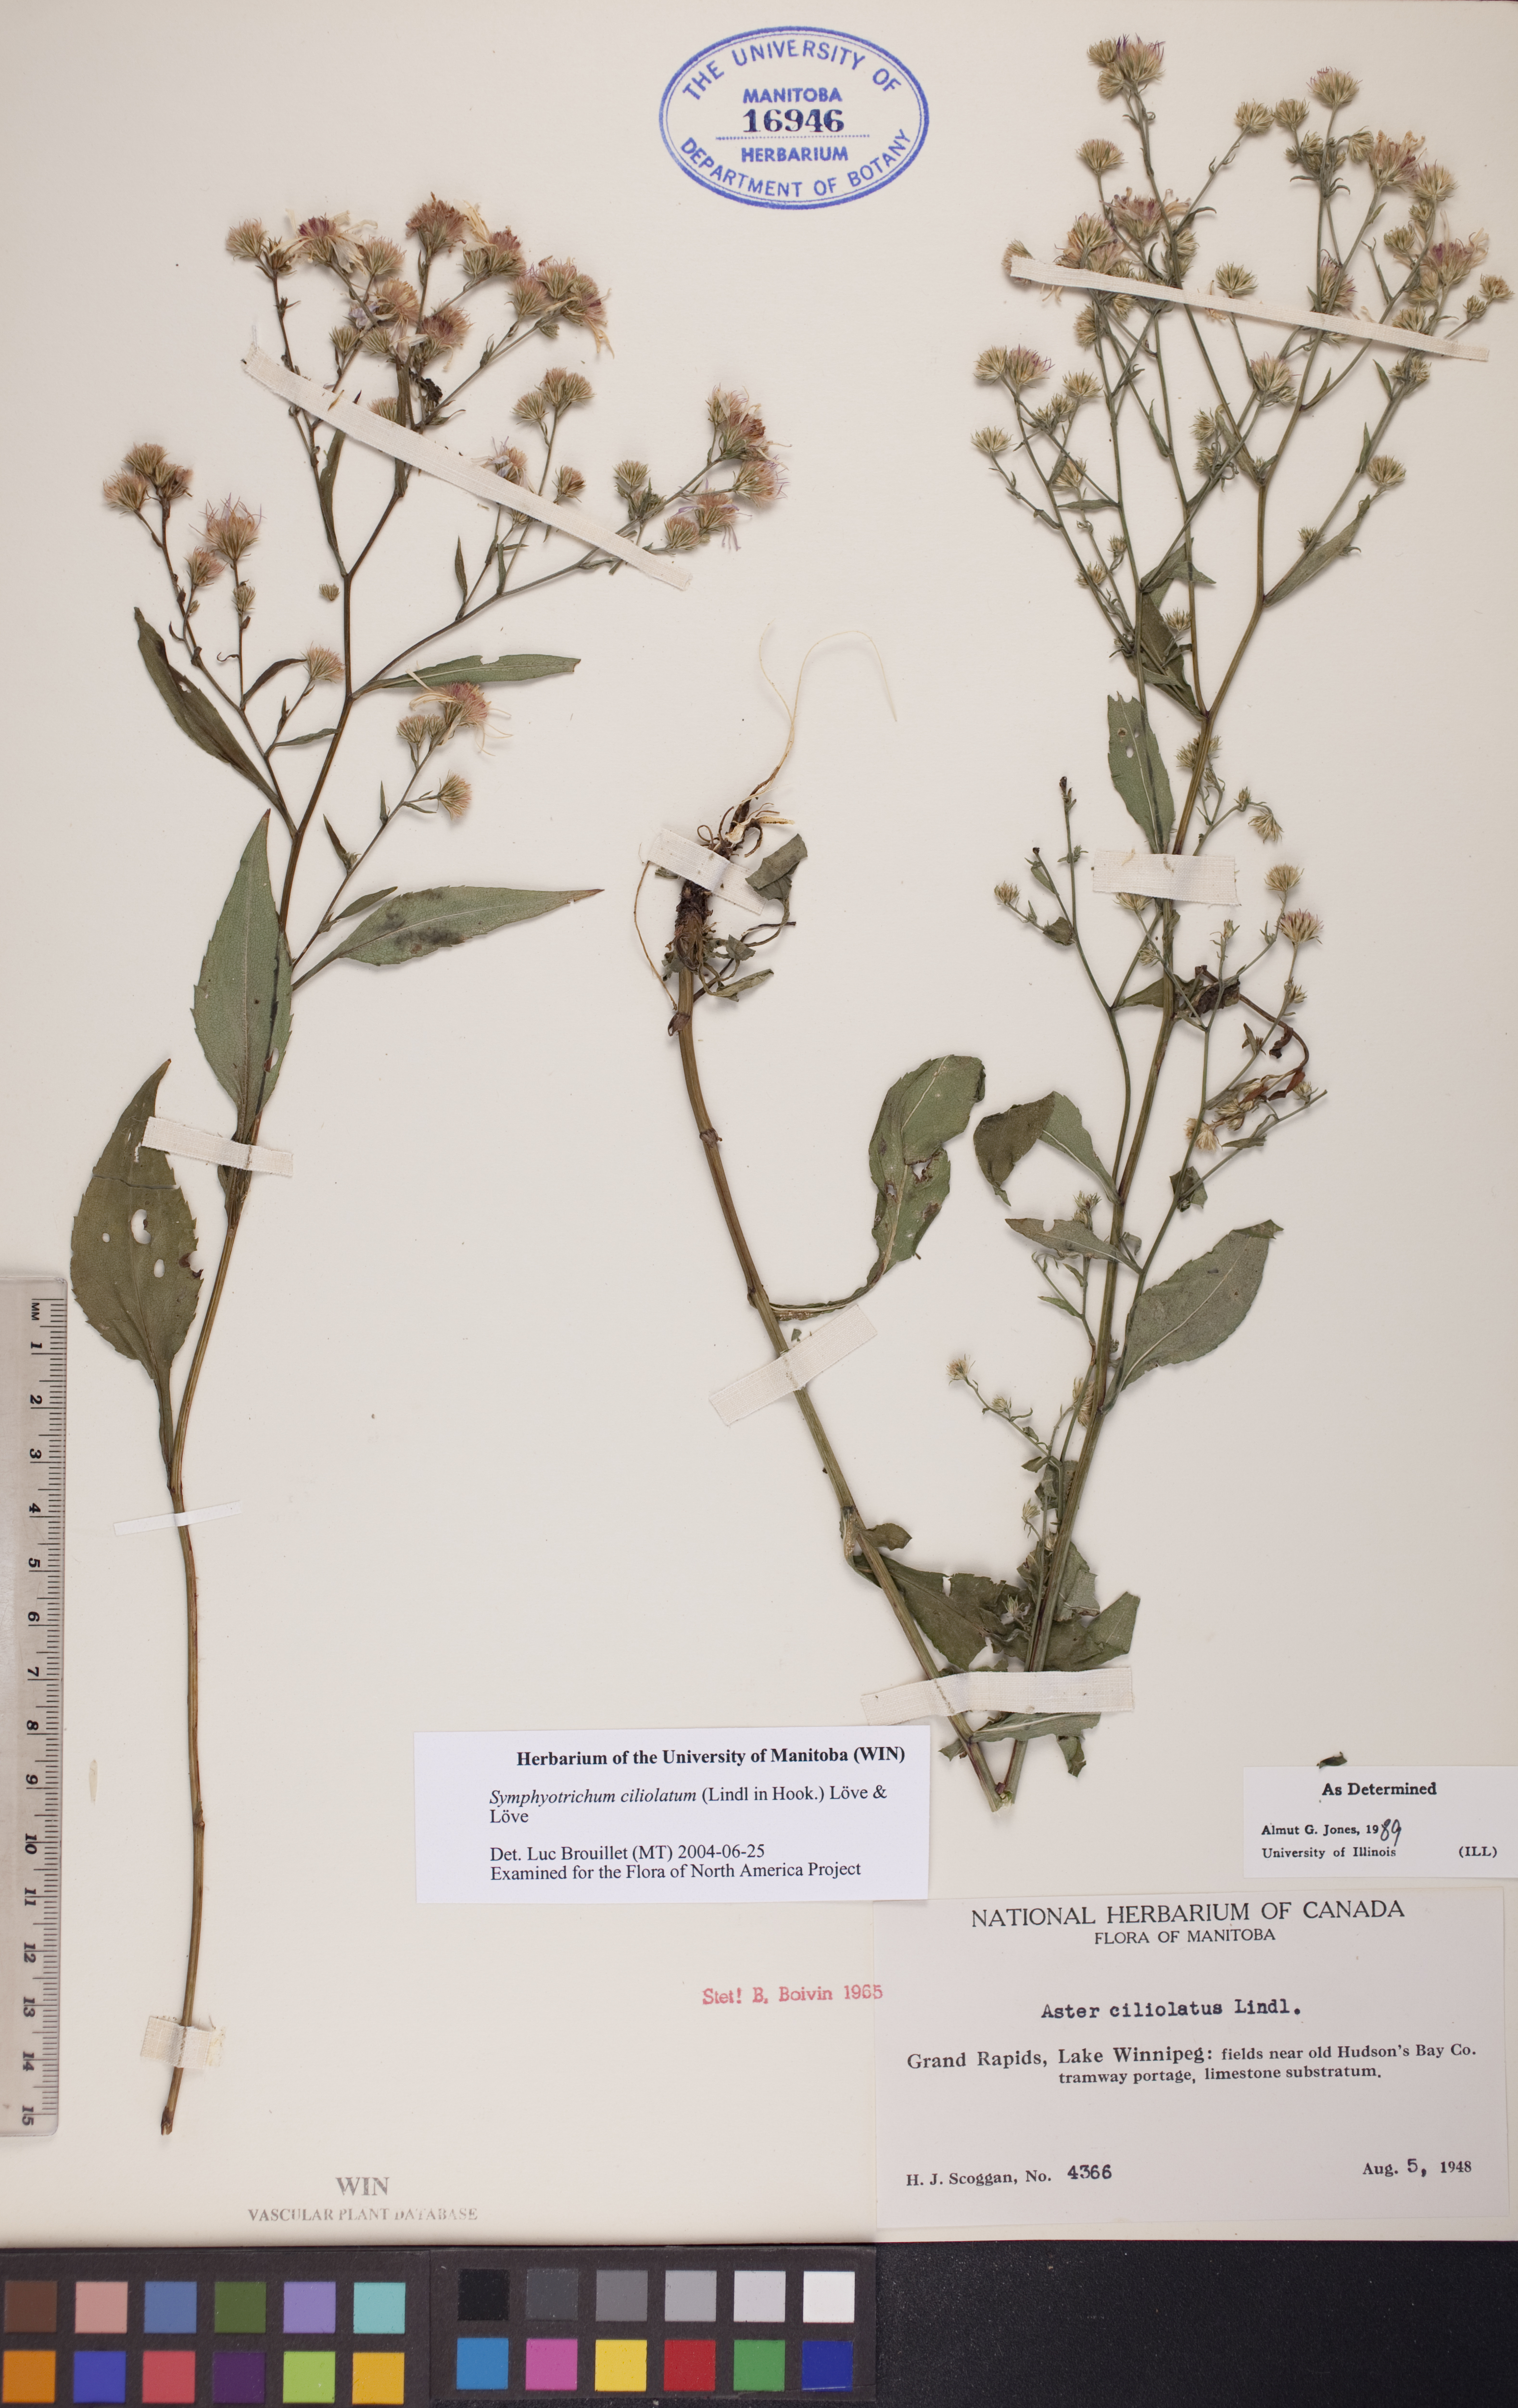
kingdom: Plantae
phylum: Tracheophyta
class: Magnoliopsida
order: Asterales
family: Asteraceae
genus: Symphyotrichum
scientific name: Symphyotrichum ciliolatum
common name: Fringed blue aster
